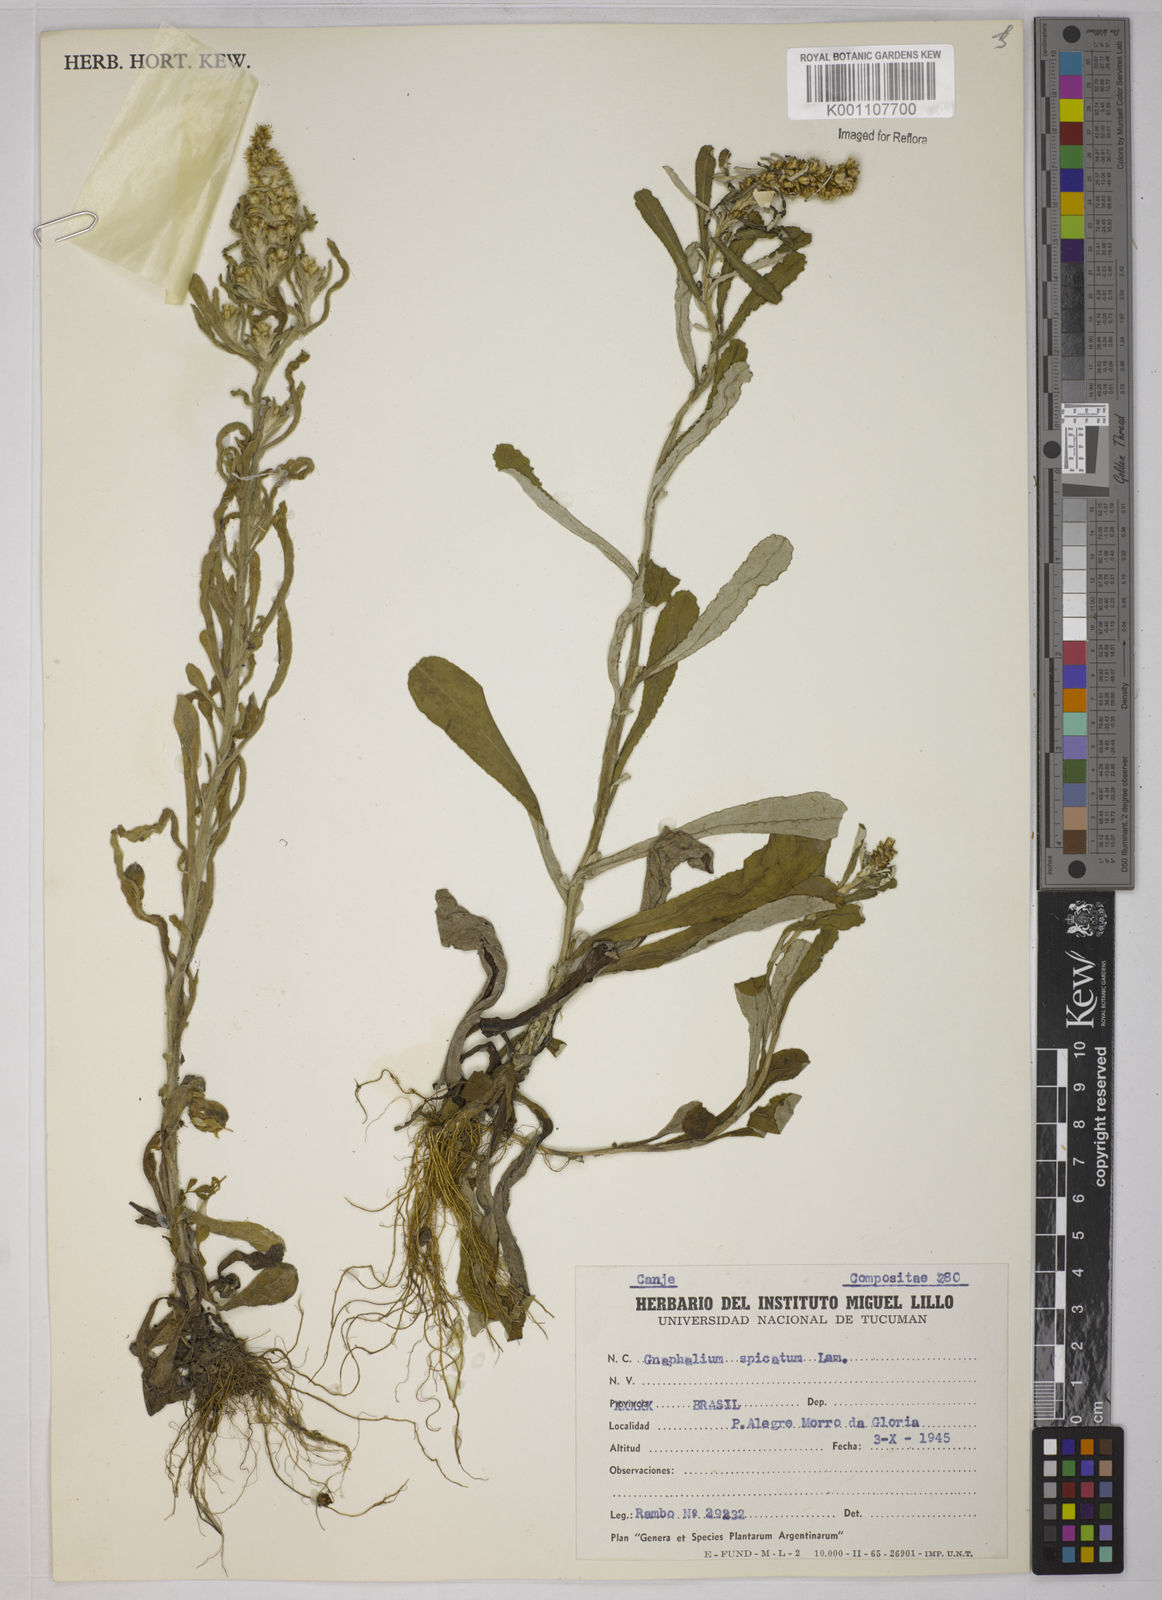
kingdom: Plantae
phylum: Tracheophyta
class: Magnoliopsida
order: Asterales
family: Asteraceae
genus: Gamochaeta
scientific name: Gamochaeta simplicicaulis
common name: Simple-stem everlasting
